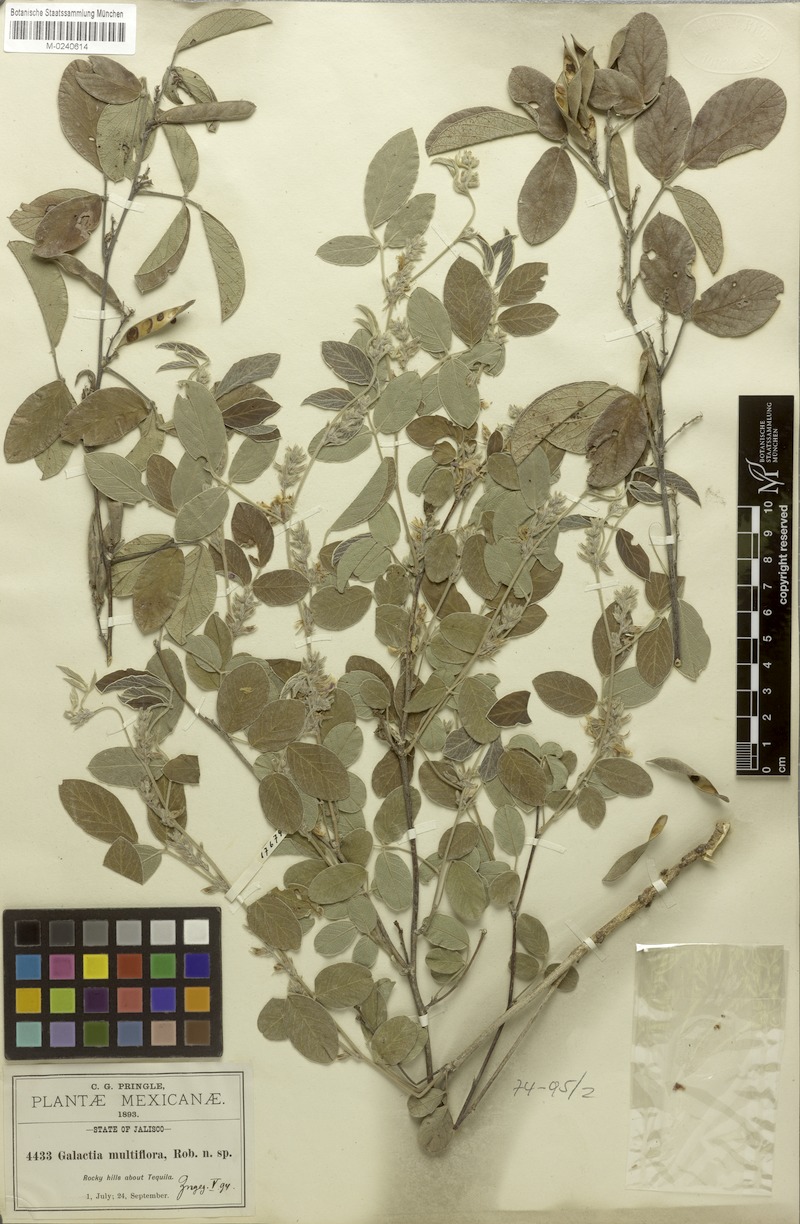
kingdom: Plantae
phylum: Tracheophyta
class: Magnoliopsida
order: Fabales
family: Fabaceae
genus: Galactia
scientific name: Galactia multiflora
